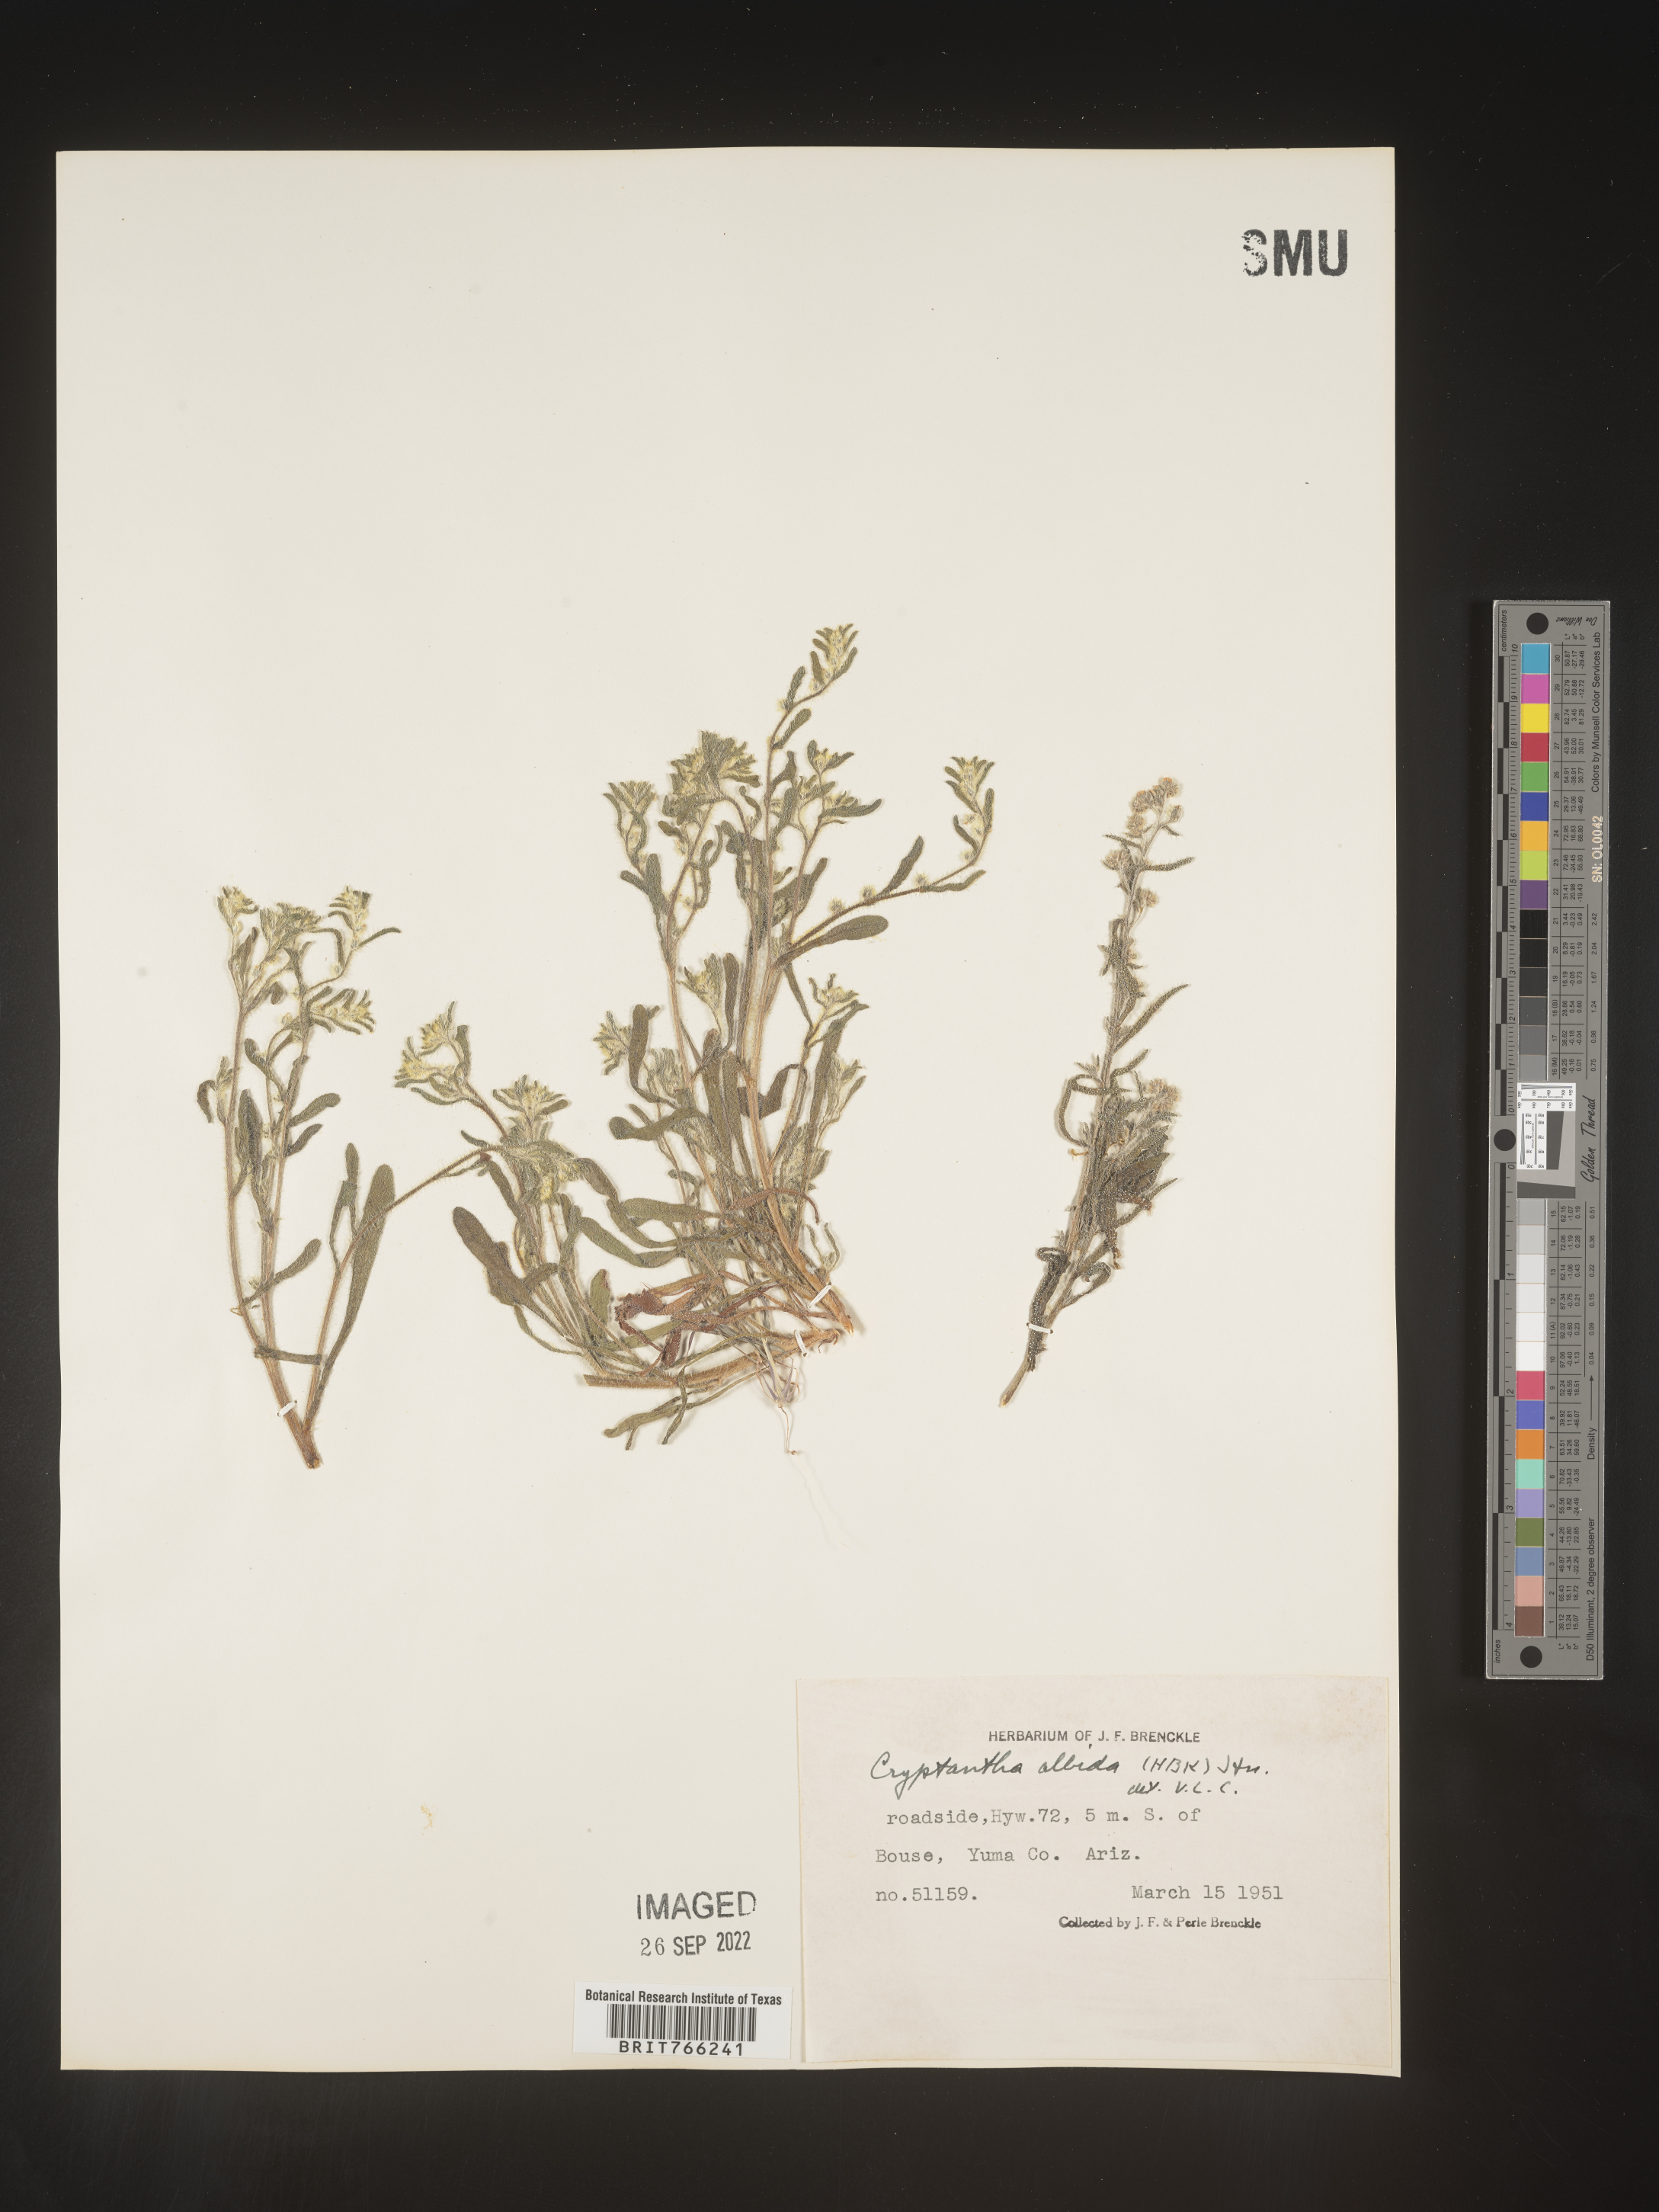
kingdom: Plantae
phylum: Tracheophyta
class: Magnoliopsida
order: Boraginales
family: Boraginaceae
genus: Cryptantha
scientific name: Cryptantha
